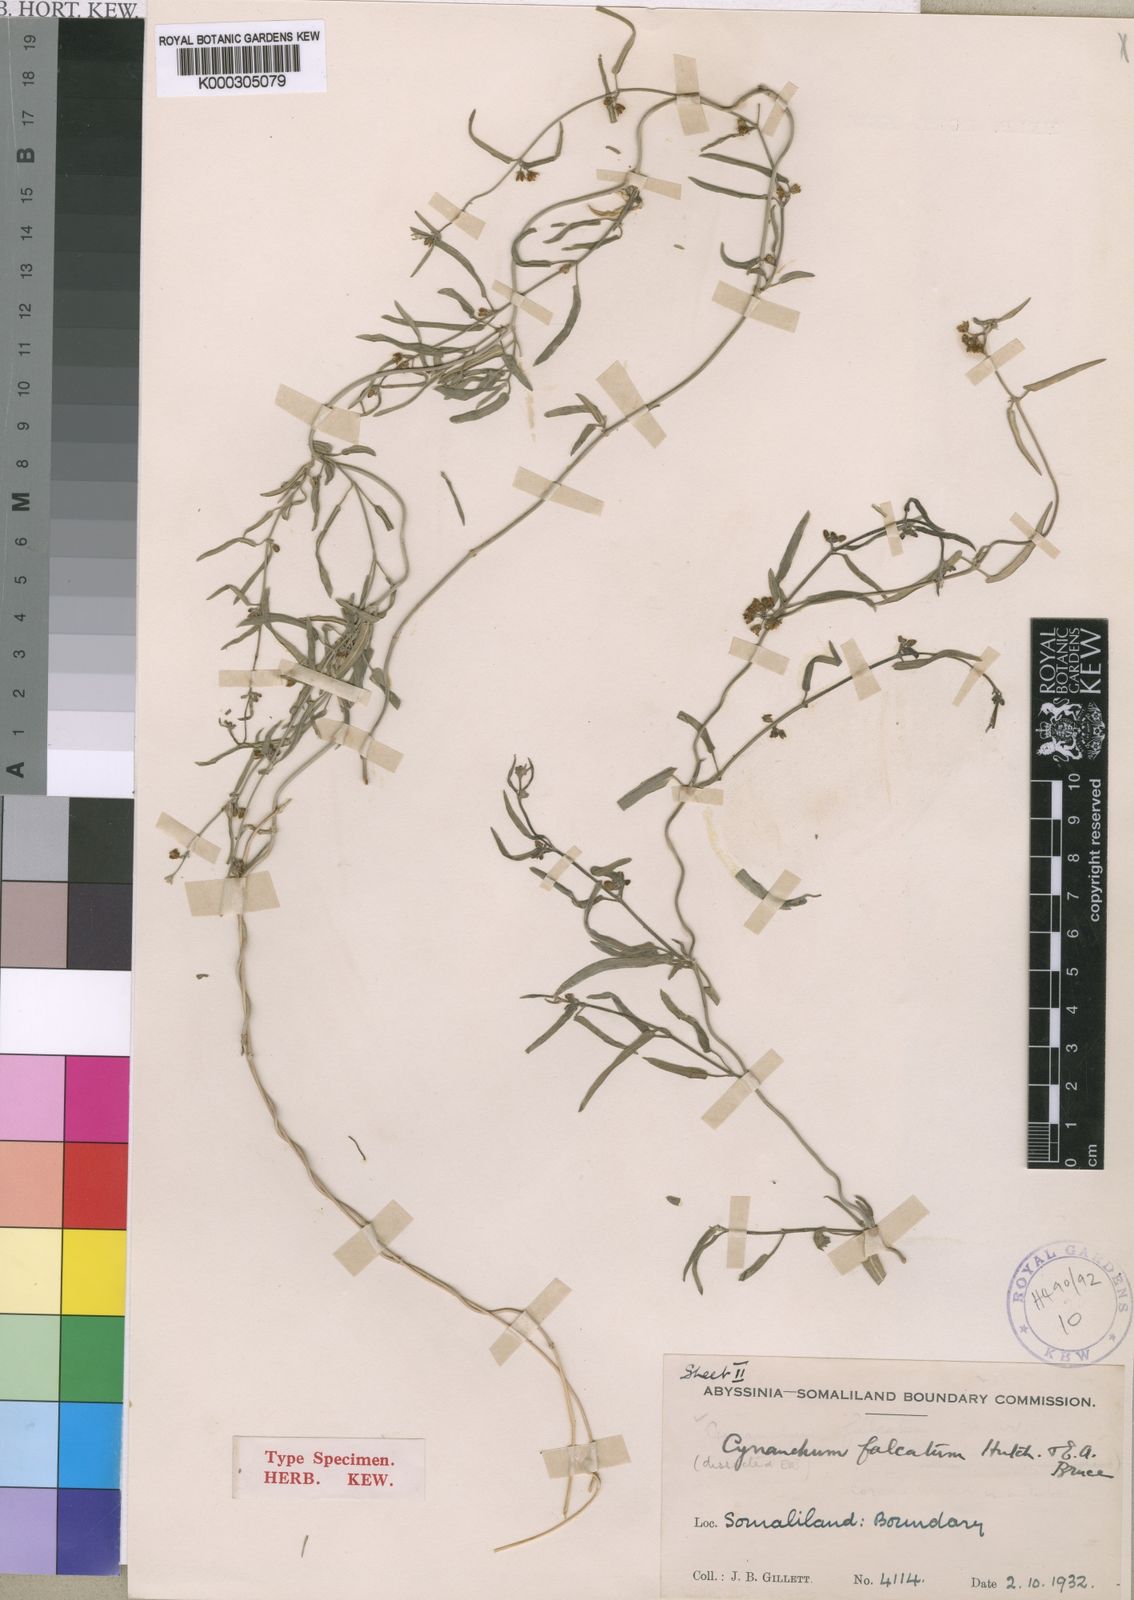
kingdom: Plantae
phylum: Tracheophyta
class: Magnoliopsida
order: Gentianales
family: Apocynaceae
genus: Cynanchum
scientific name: Cynanchum falcatum
